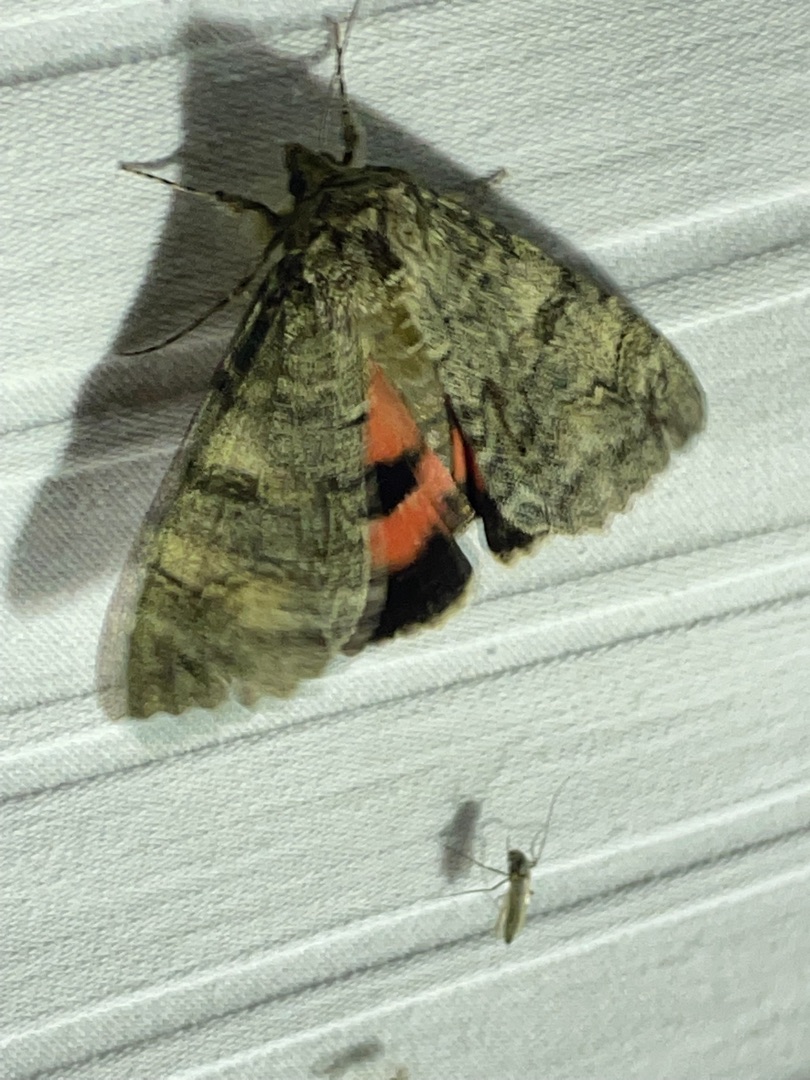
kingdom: Animalia
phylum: Arthropoda
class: Insecta
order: Lepidoptera
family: Erebidae
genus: Catocala
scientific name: Catocala nupta
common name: Rødt ordensbånd
